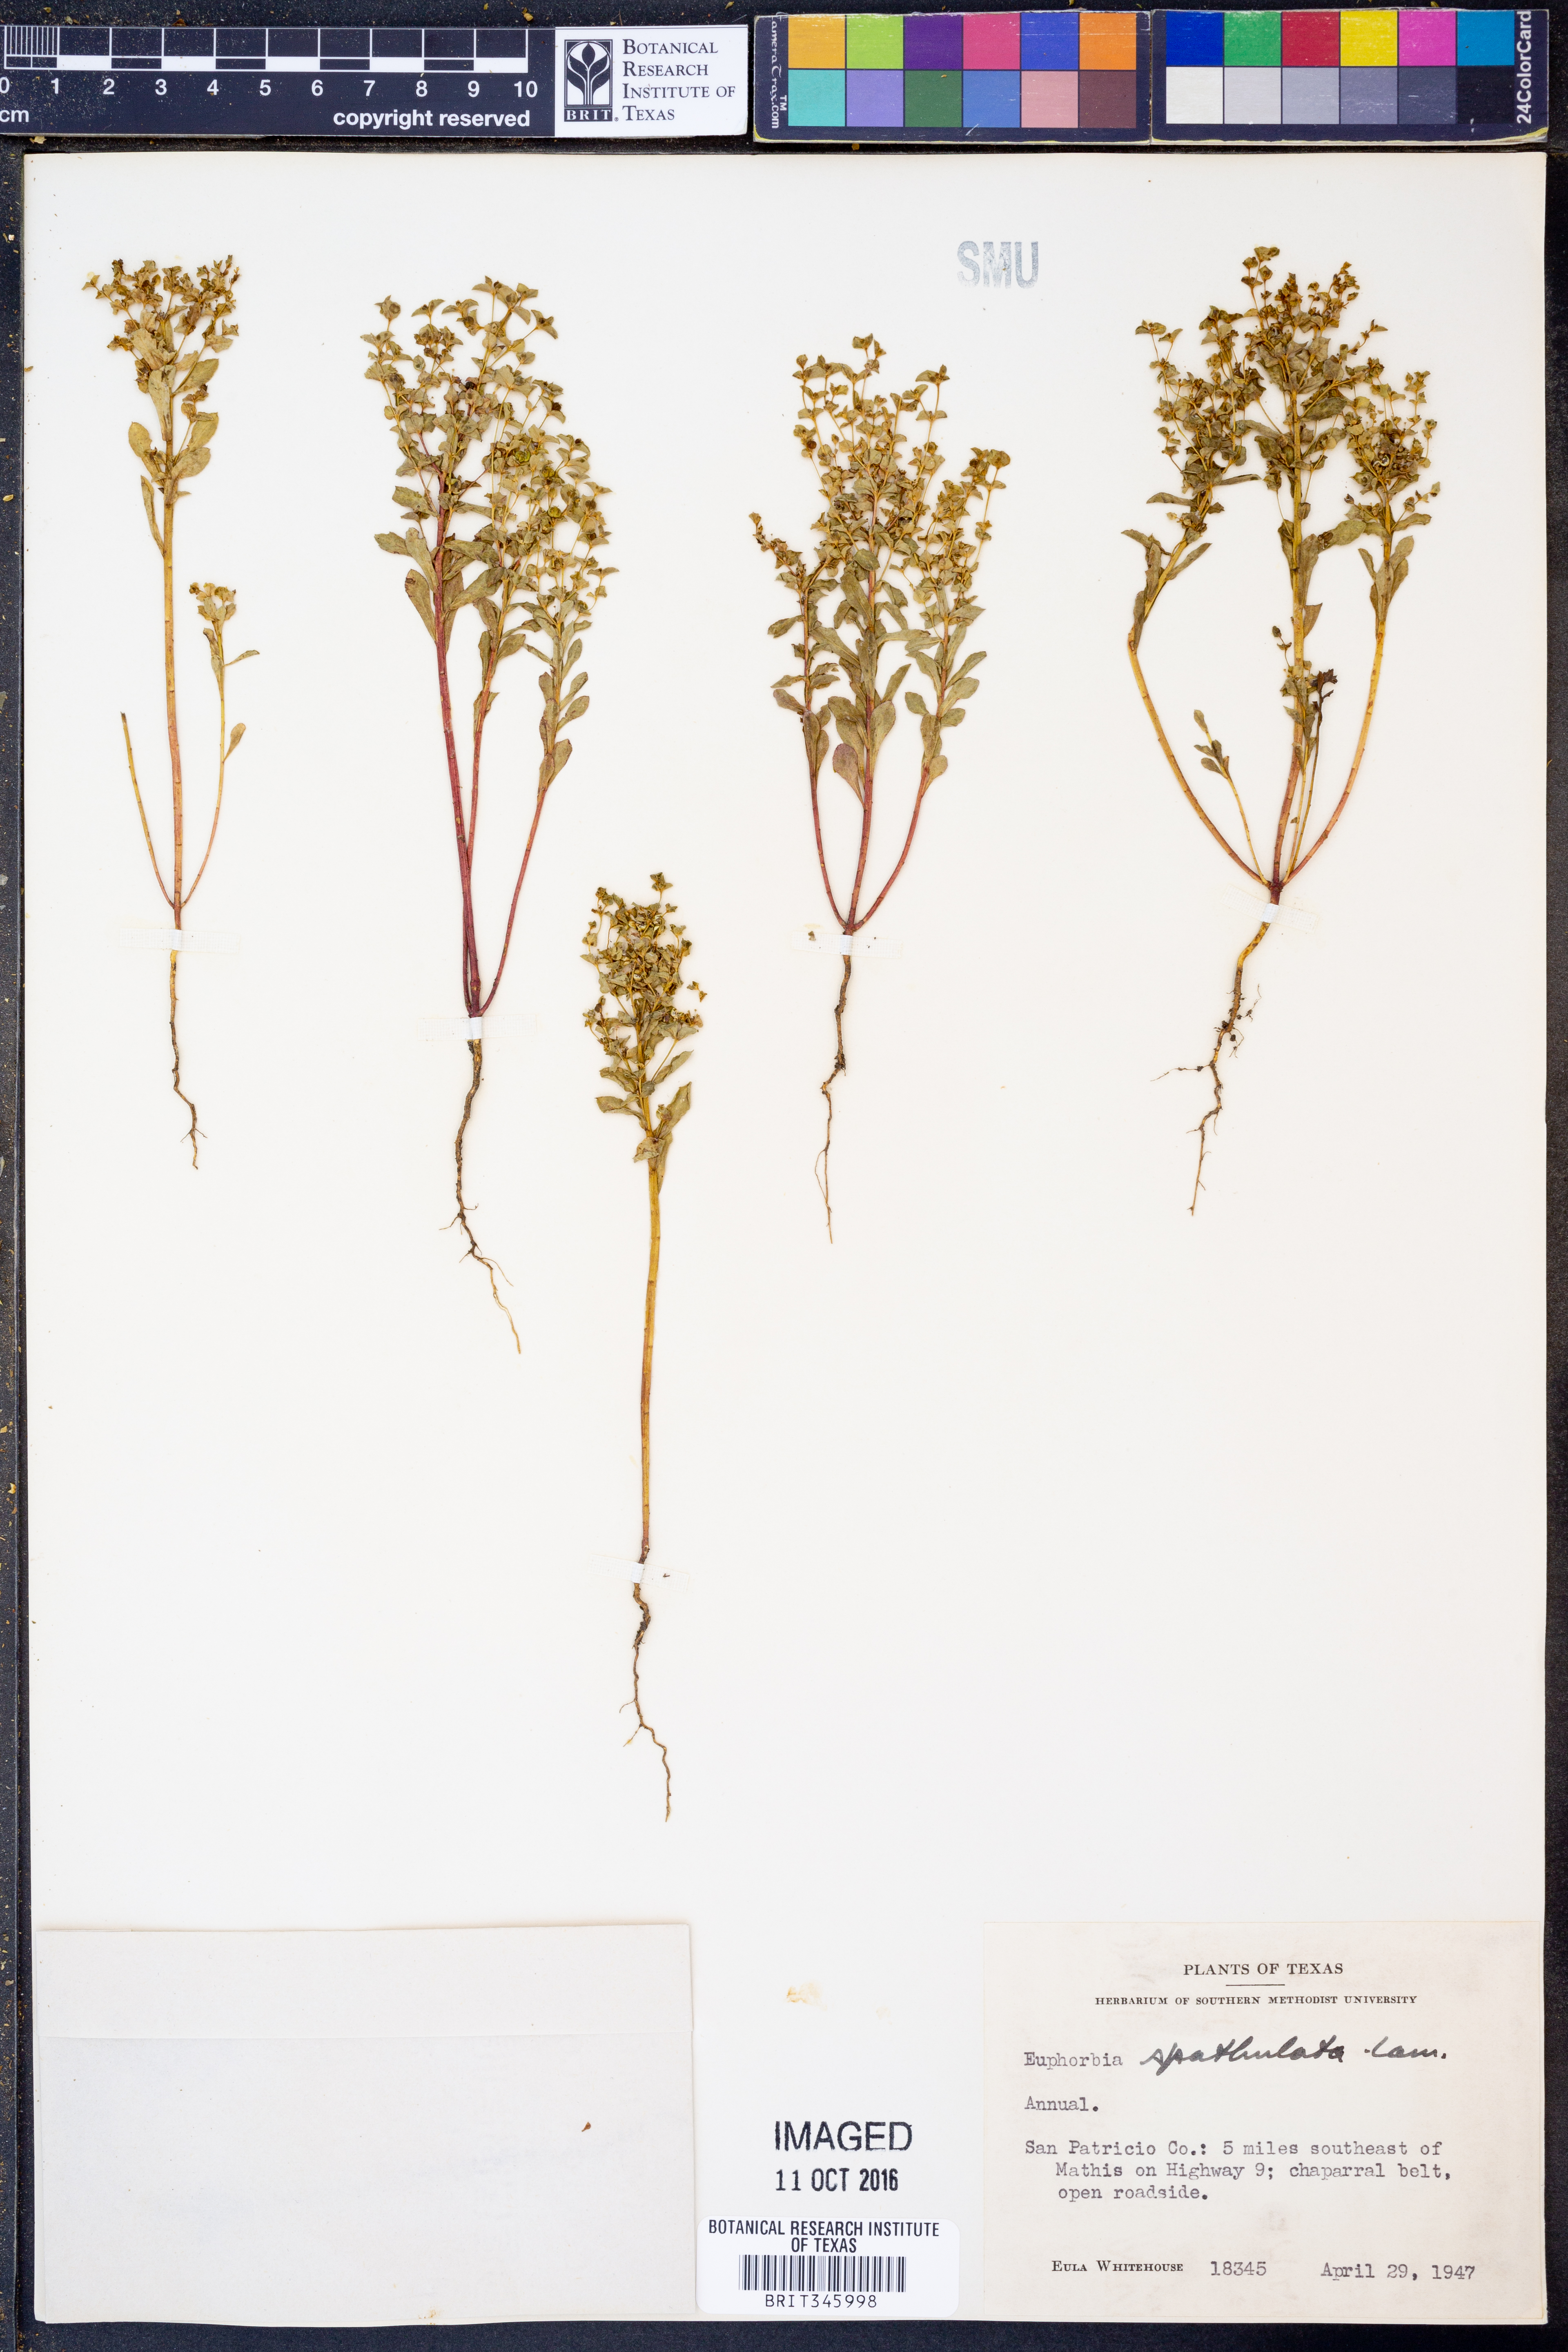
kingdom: Plantae
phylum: Tracheophyta
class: Magnoliopsida
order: Malpighiales
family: Euphorbiaceae
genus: Euphorbia
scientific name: Euphorbia spathulata
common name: Blunt spurge
